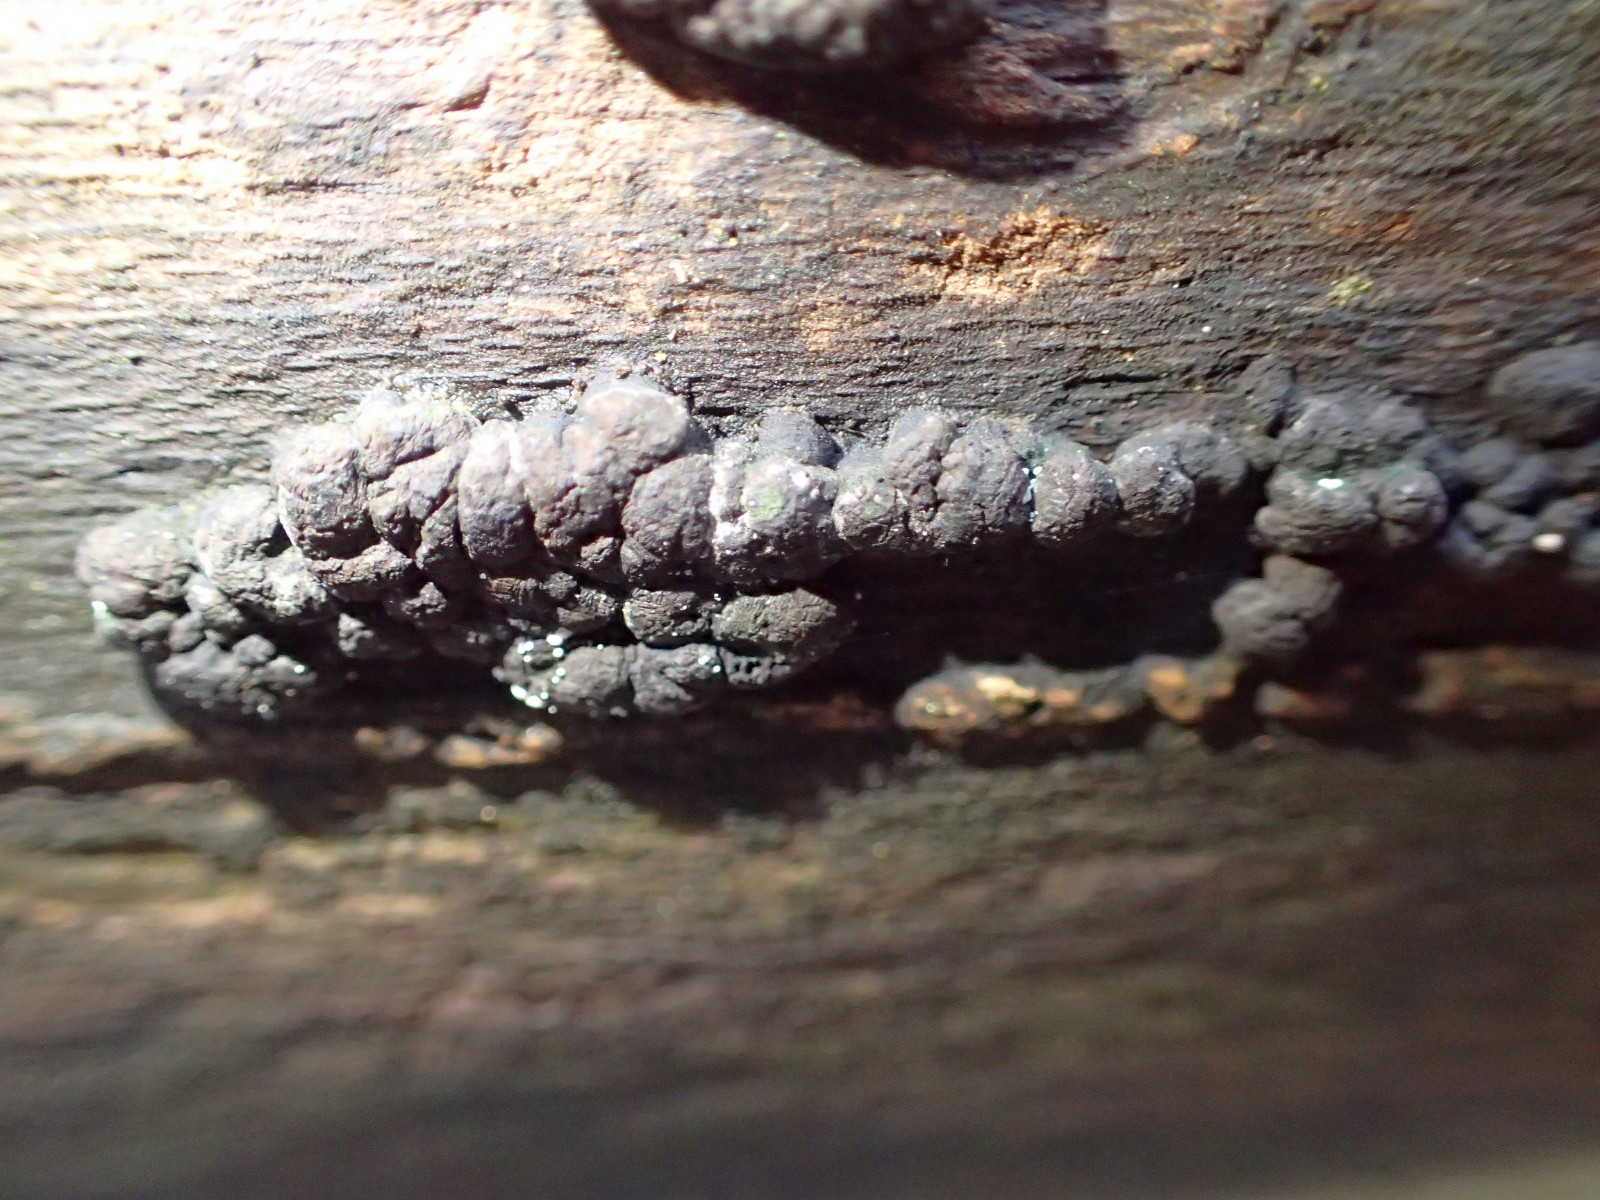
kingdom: Fungi
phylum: Ascomycota
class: Sordariomycetes
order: Xylariales
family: Hypoxylaceae
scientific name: Hypoxylaceae
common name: kulbærfamilien
